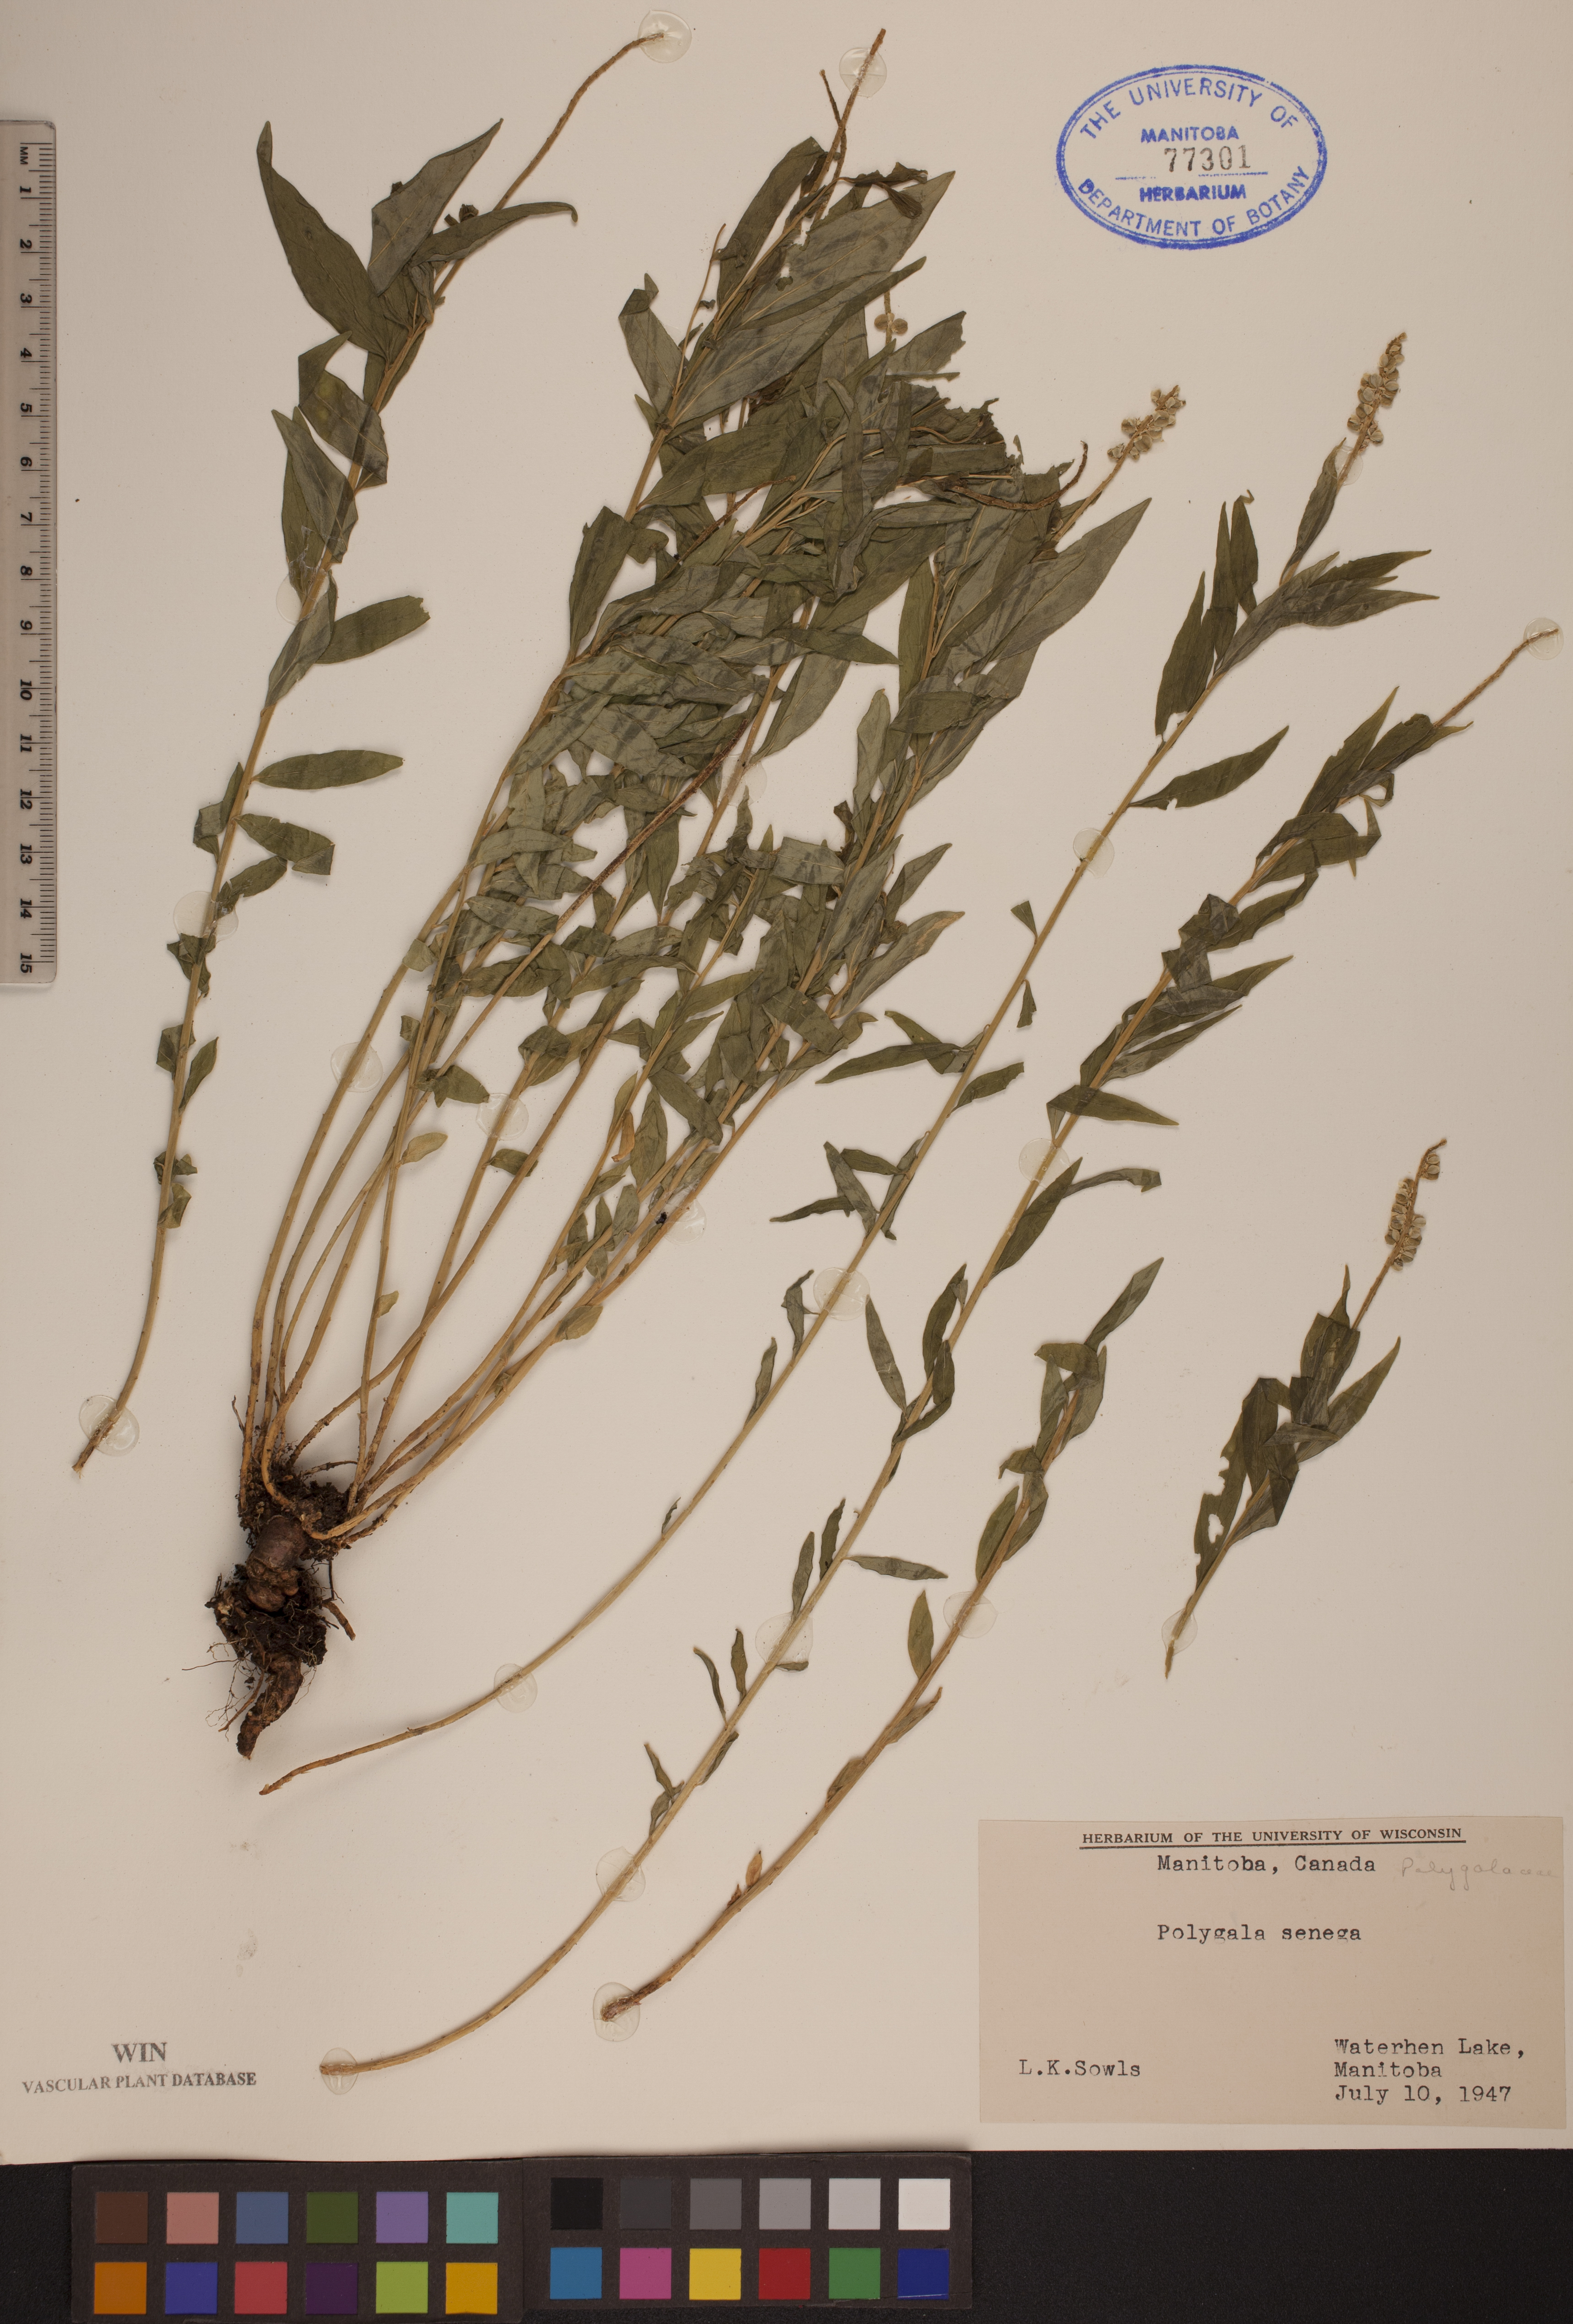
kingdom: Plantae
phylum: Tracheophyta
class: Magnoliopsida
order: Fabales
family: Polygalaceae
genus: Polygala
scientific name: Polygala senega
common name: Seneca snakeroot
